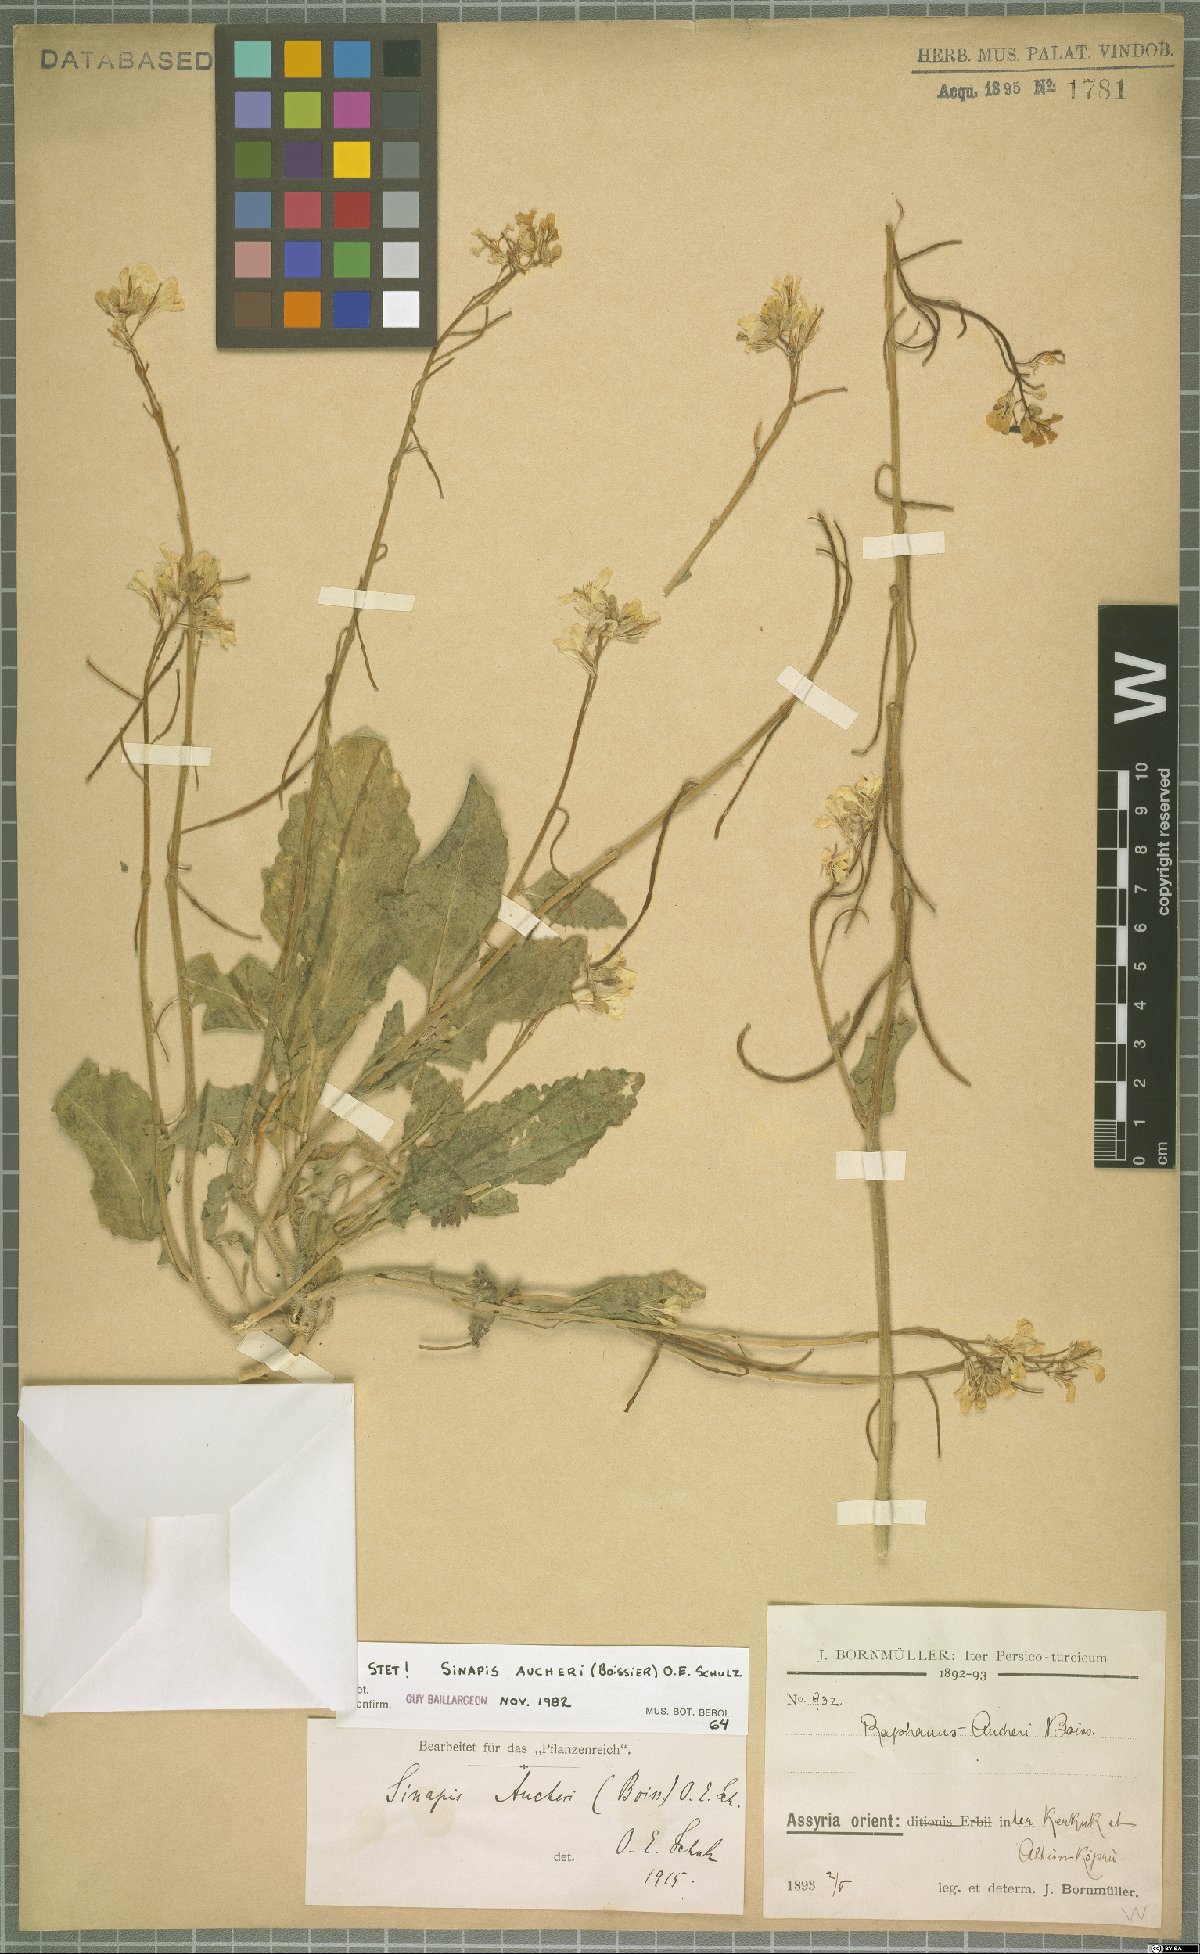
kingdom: Plantae
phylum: Tracheophyta
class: Magnoliopsida
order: Brassicales
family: Brassicaceae
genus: Brassica
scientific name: Brassica aucheri
